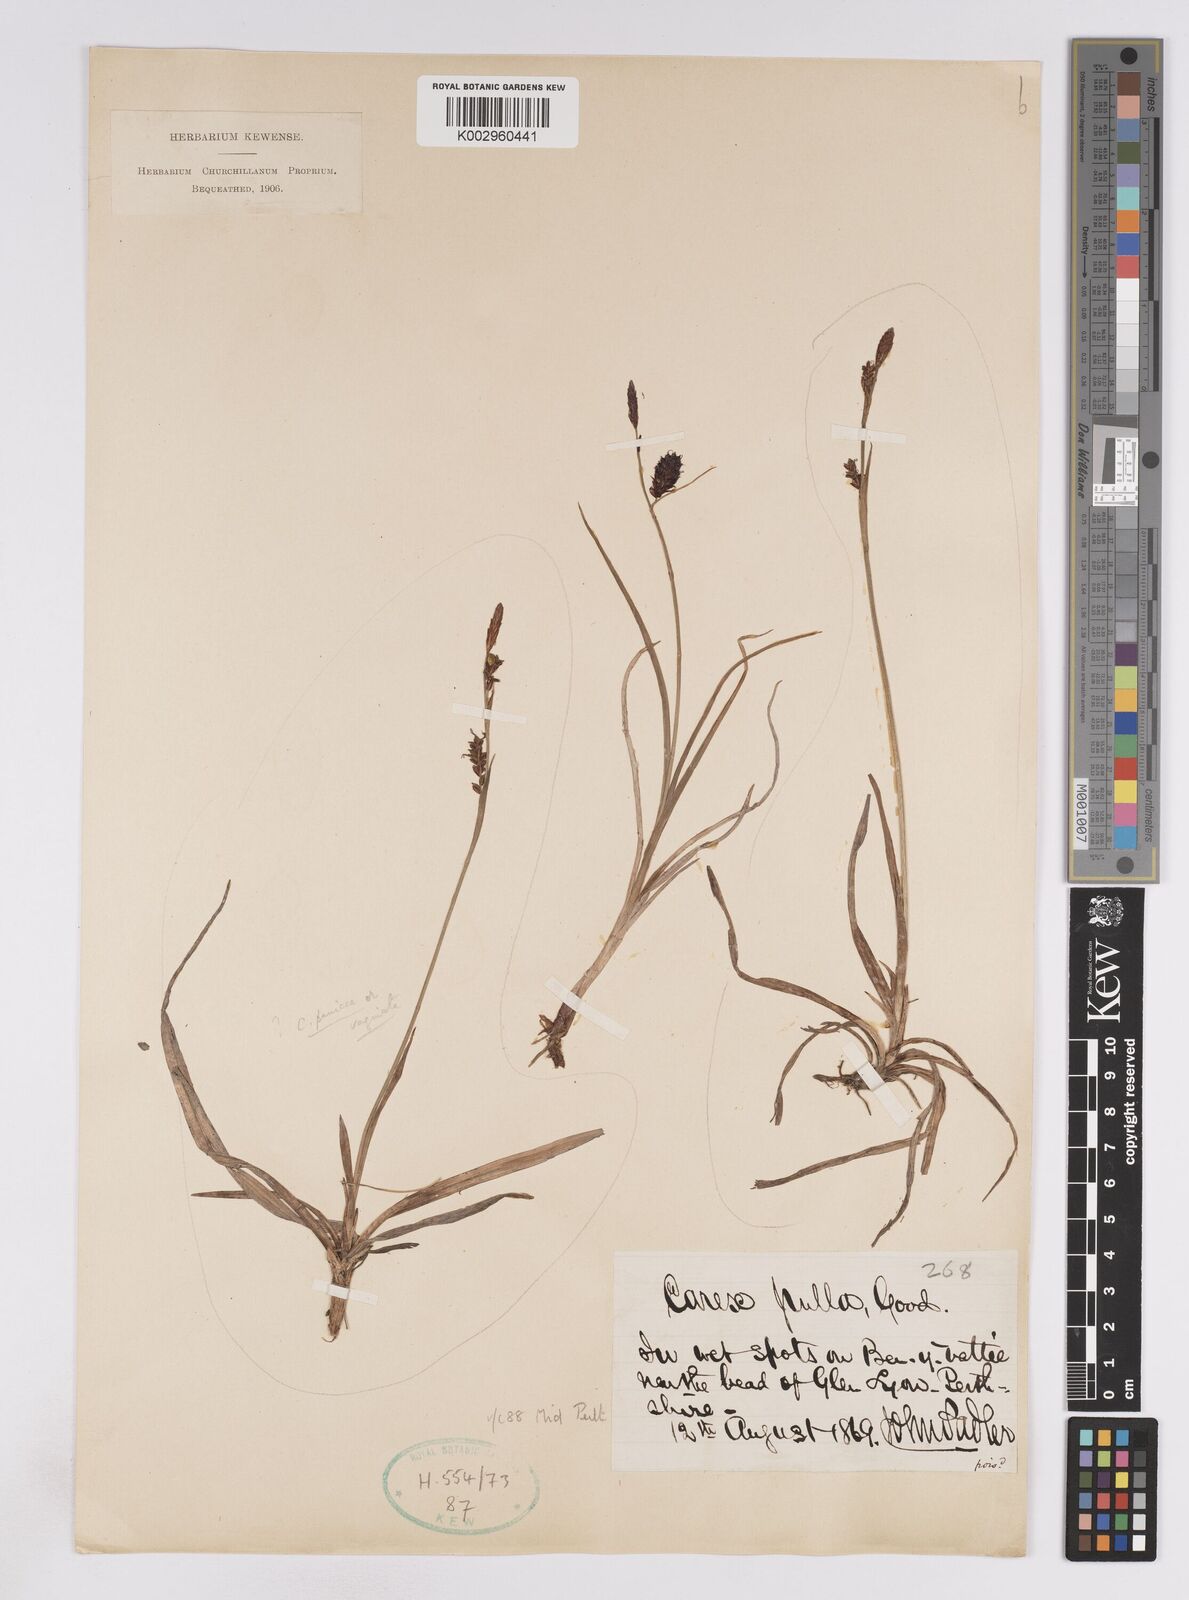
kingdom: Plantae
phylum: Tracheophyta
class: Liliopsida
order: Poales
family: Cyperaceae
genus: Carex
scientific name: Carex saxatilis
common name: Russet sedge
